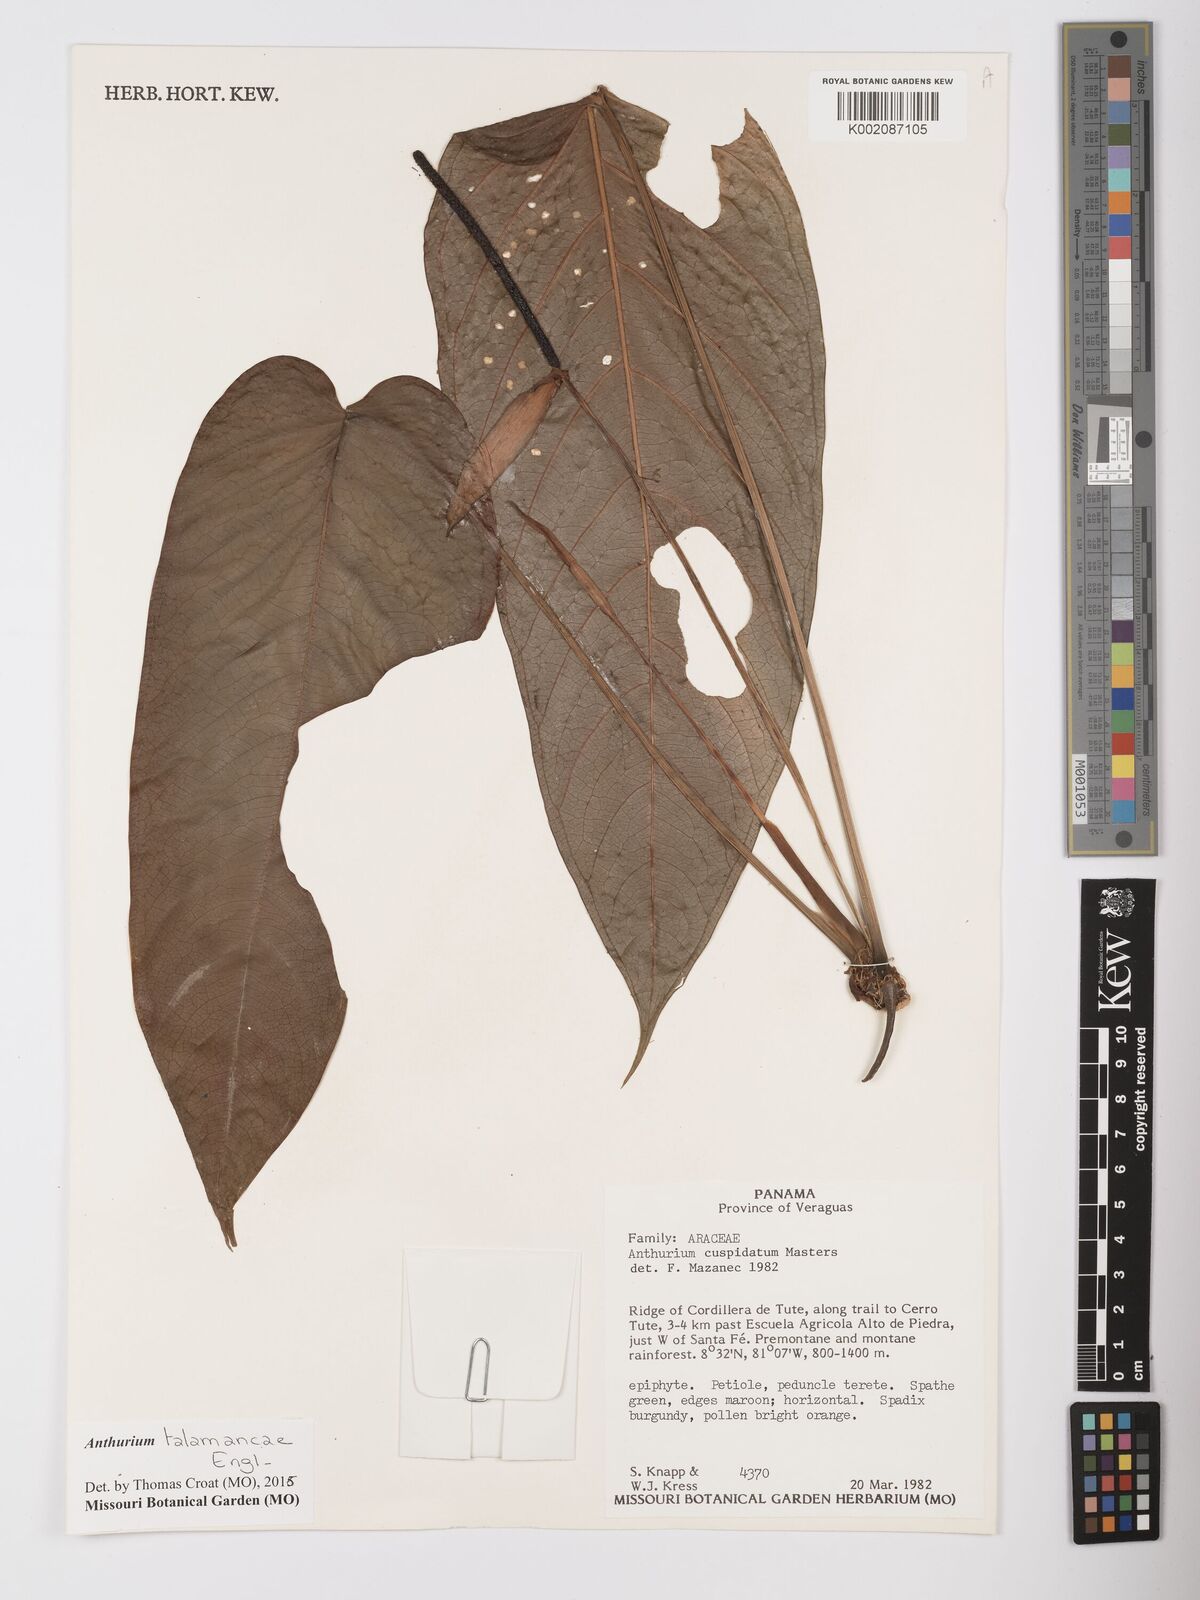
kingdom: Plantae
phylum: Tracheophyta
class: Liliopsida
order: Alismatales
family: Araceae
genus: Anthurium
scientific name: Anthurium talamancae
